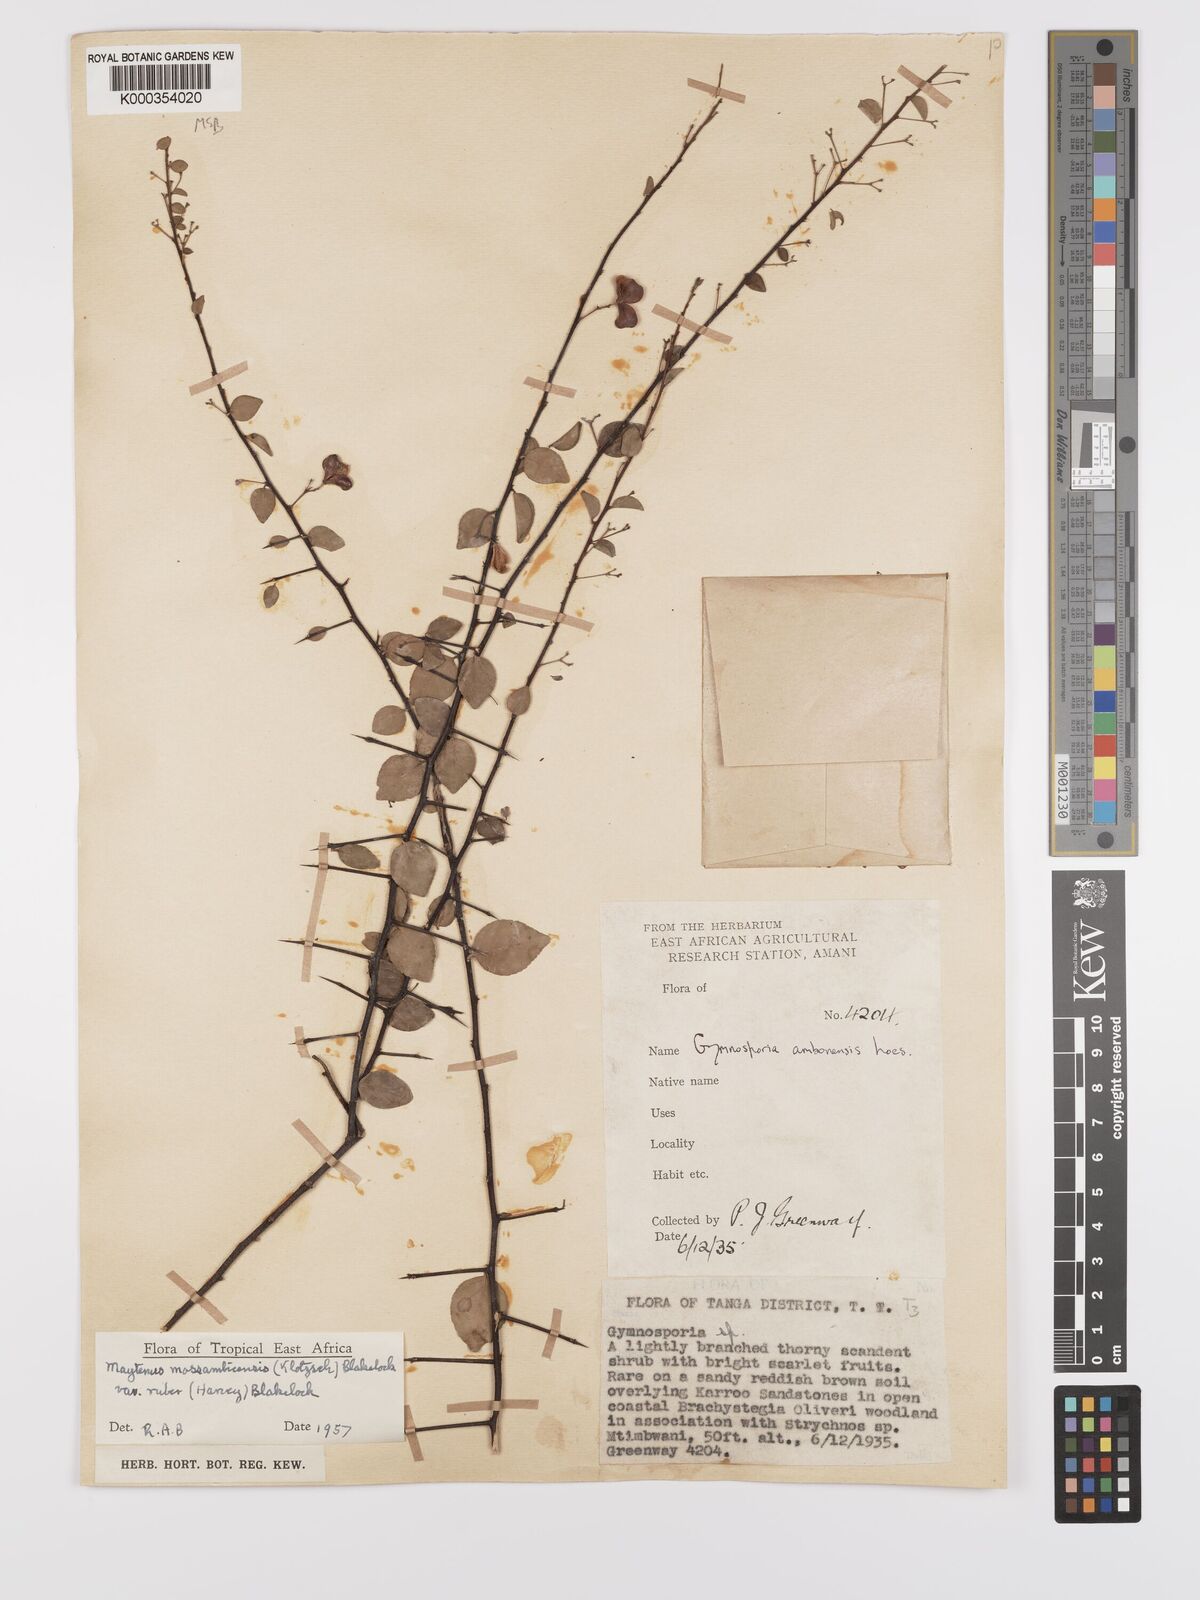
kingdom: Plantae
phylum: Tracheophyta
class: Magnoliopsida
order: Celastrales
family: Celastraceae
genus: Gymnosporia
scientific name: Gymnosporia mossambicensis
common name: Black forest spike-thorn
